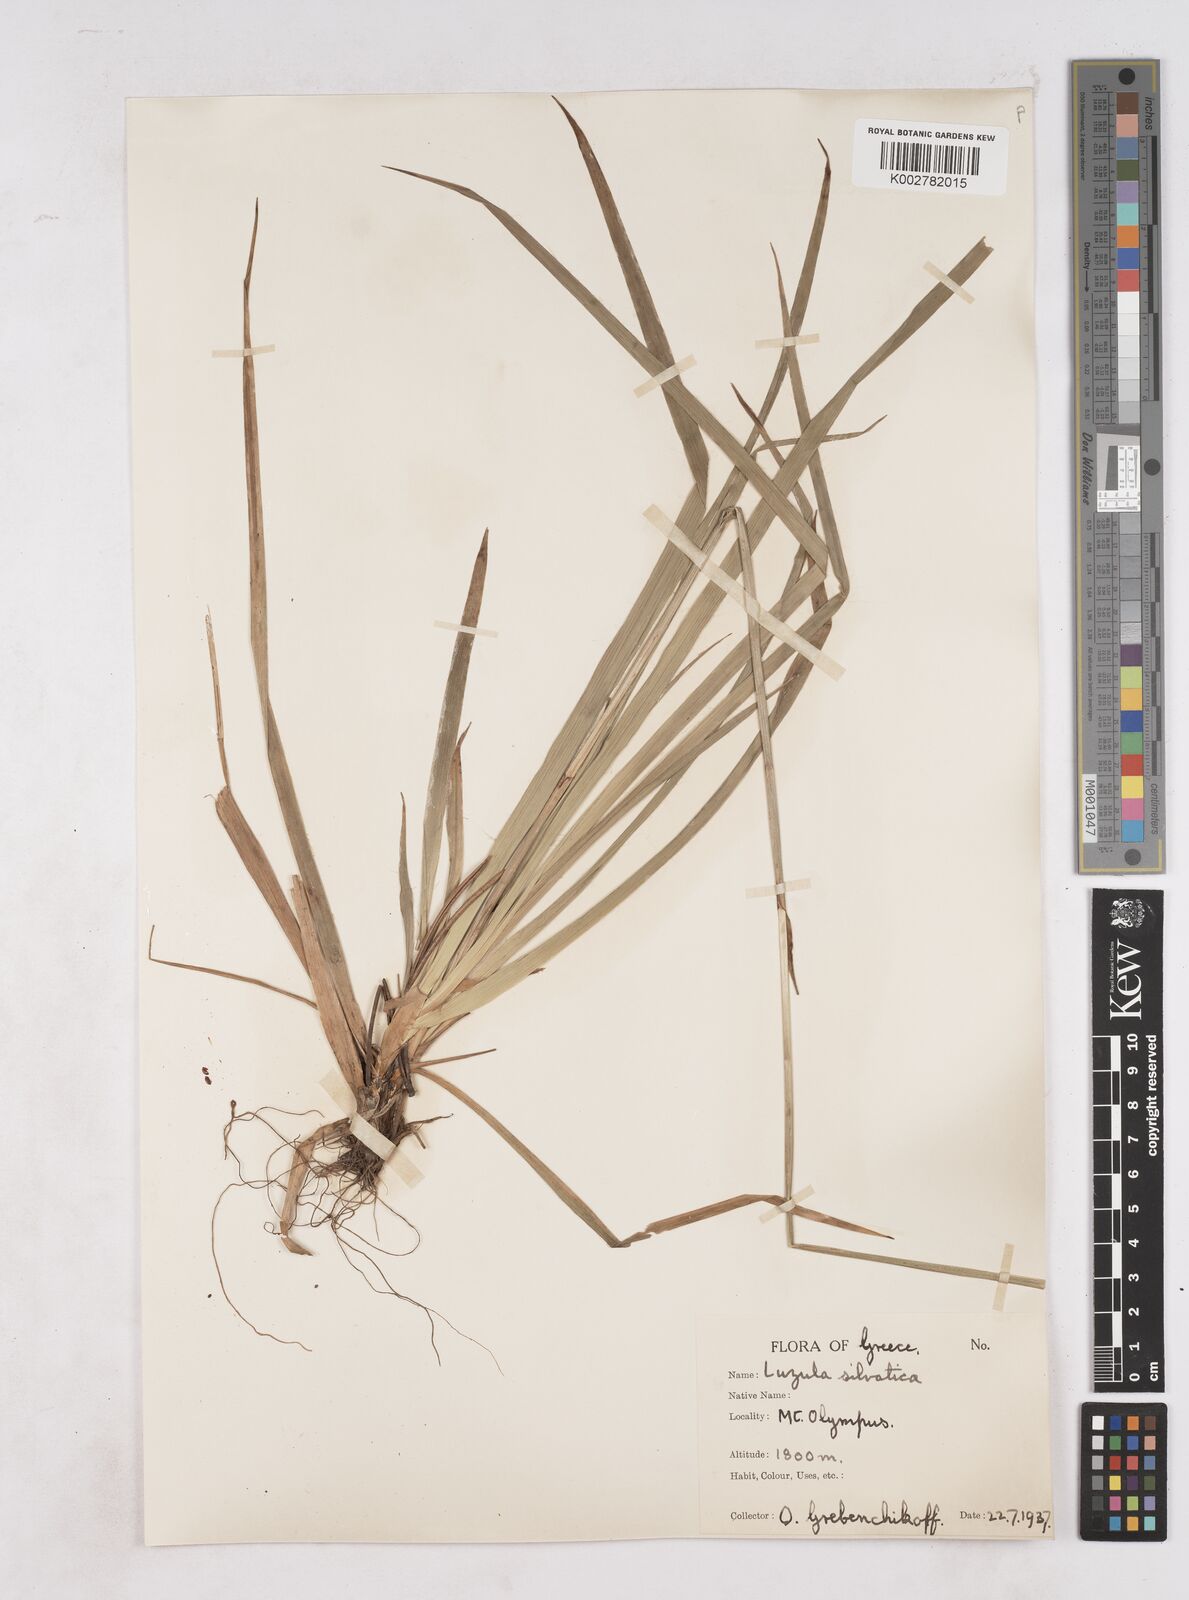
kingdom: Plantae
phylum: Tracheophyta
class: Liliopsida
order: Poales
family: Juncaceae
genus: Luzula
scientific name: Luzula sylvatica
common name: Great wood-rush
